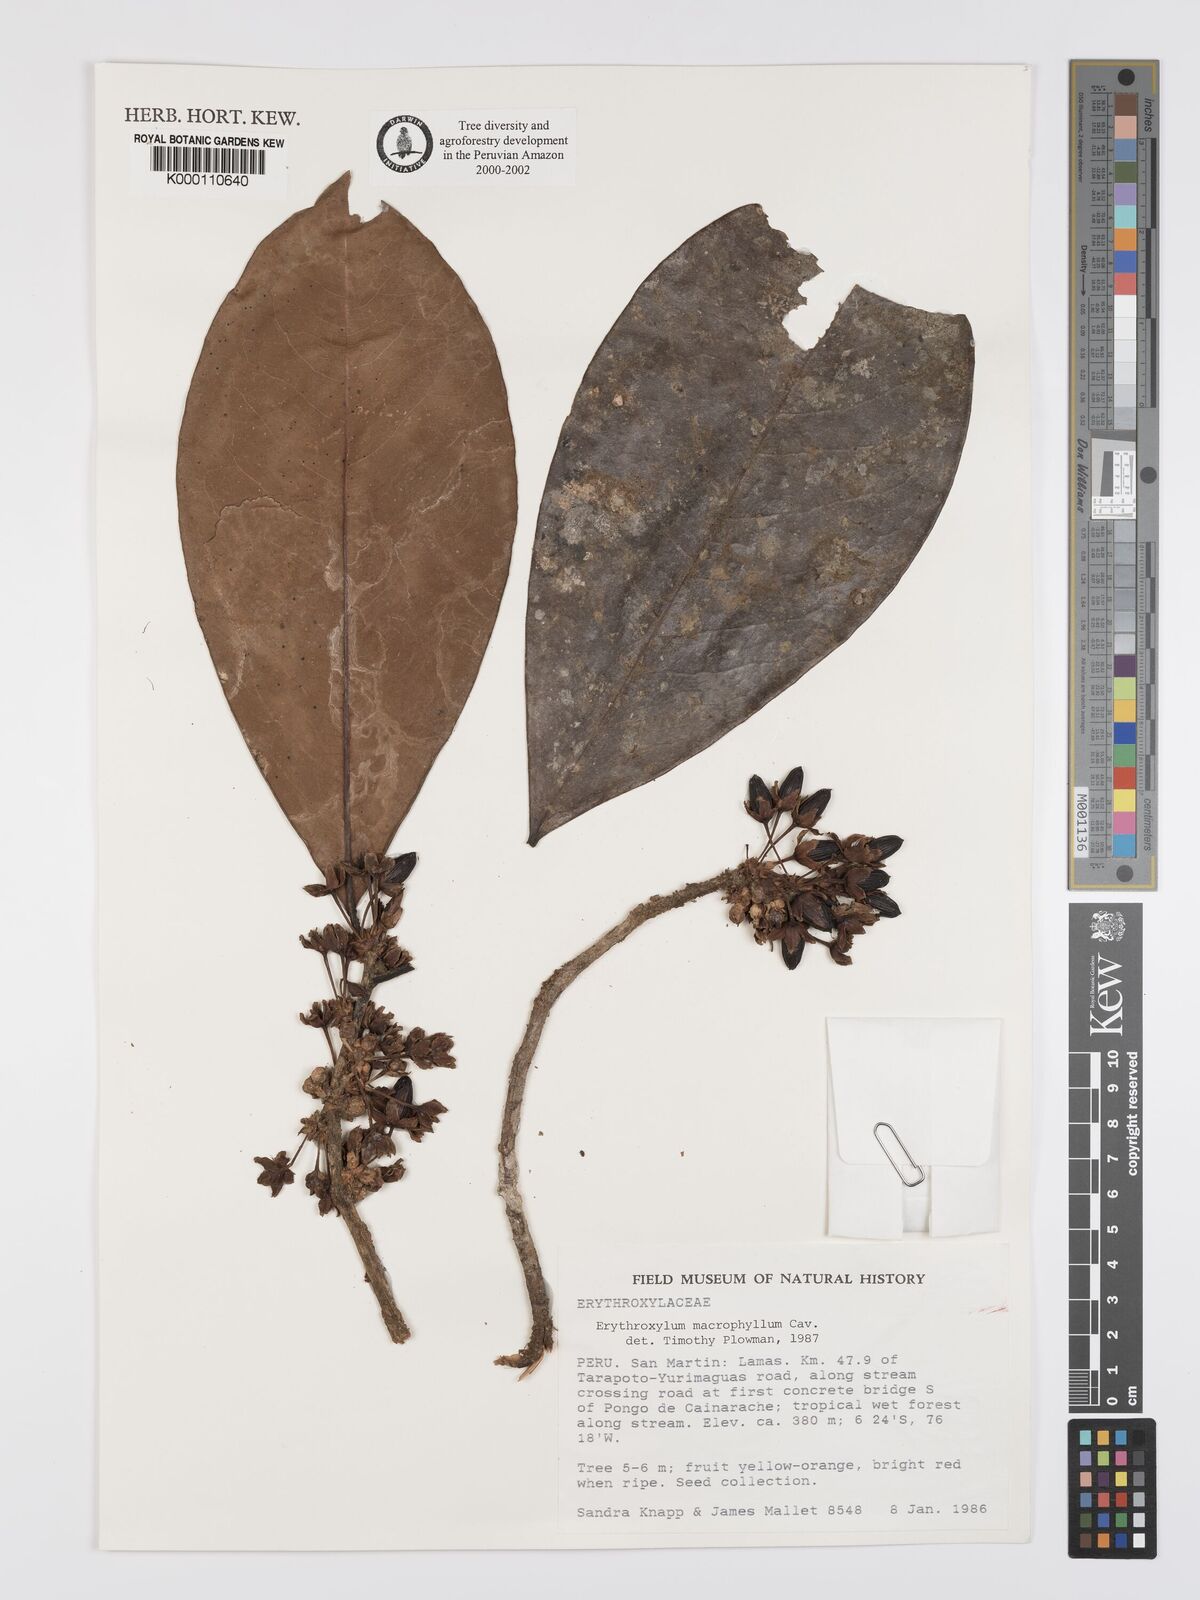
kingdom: Plantae
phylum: Tracheophyta
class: Magnoliopsida
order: Malpighiales
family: Erythroxylaceae
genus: Erythroxylum
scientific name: Erythroxylum
